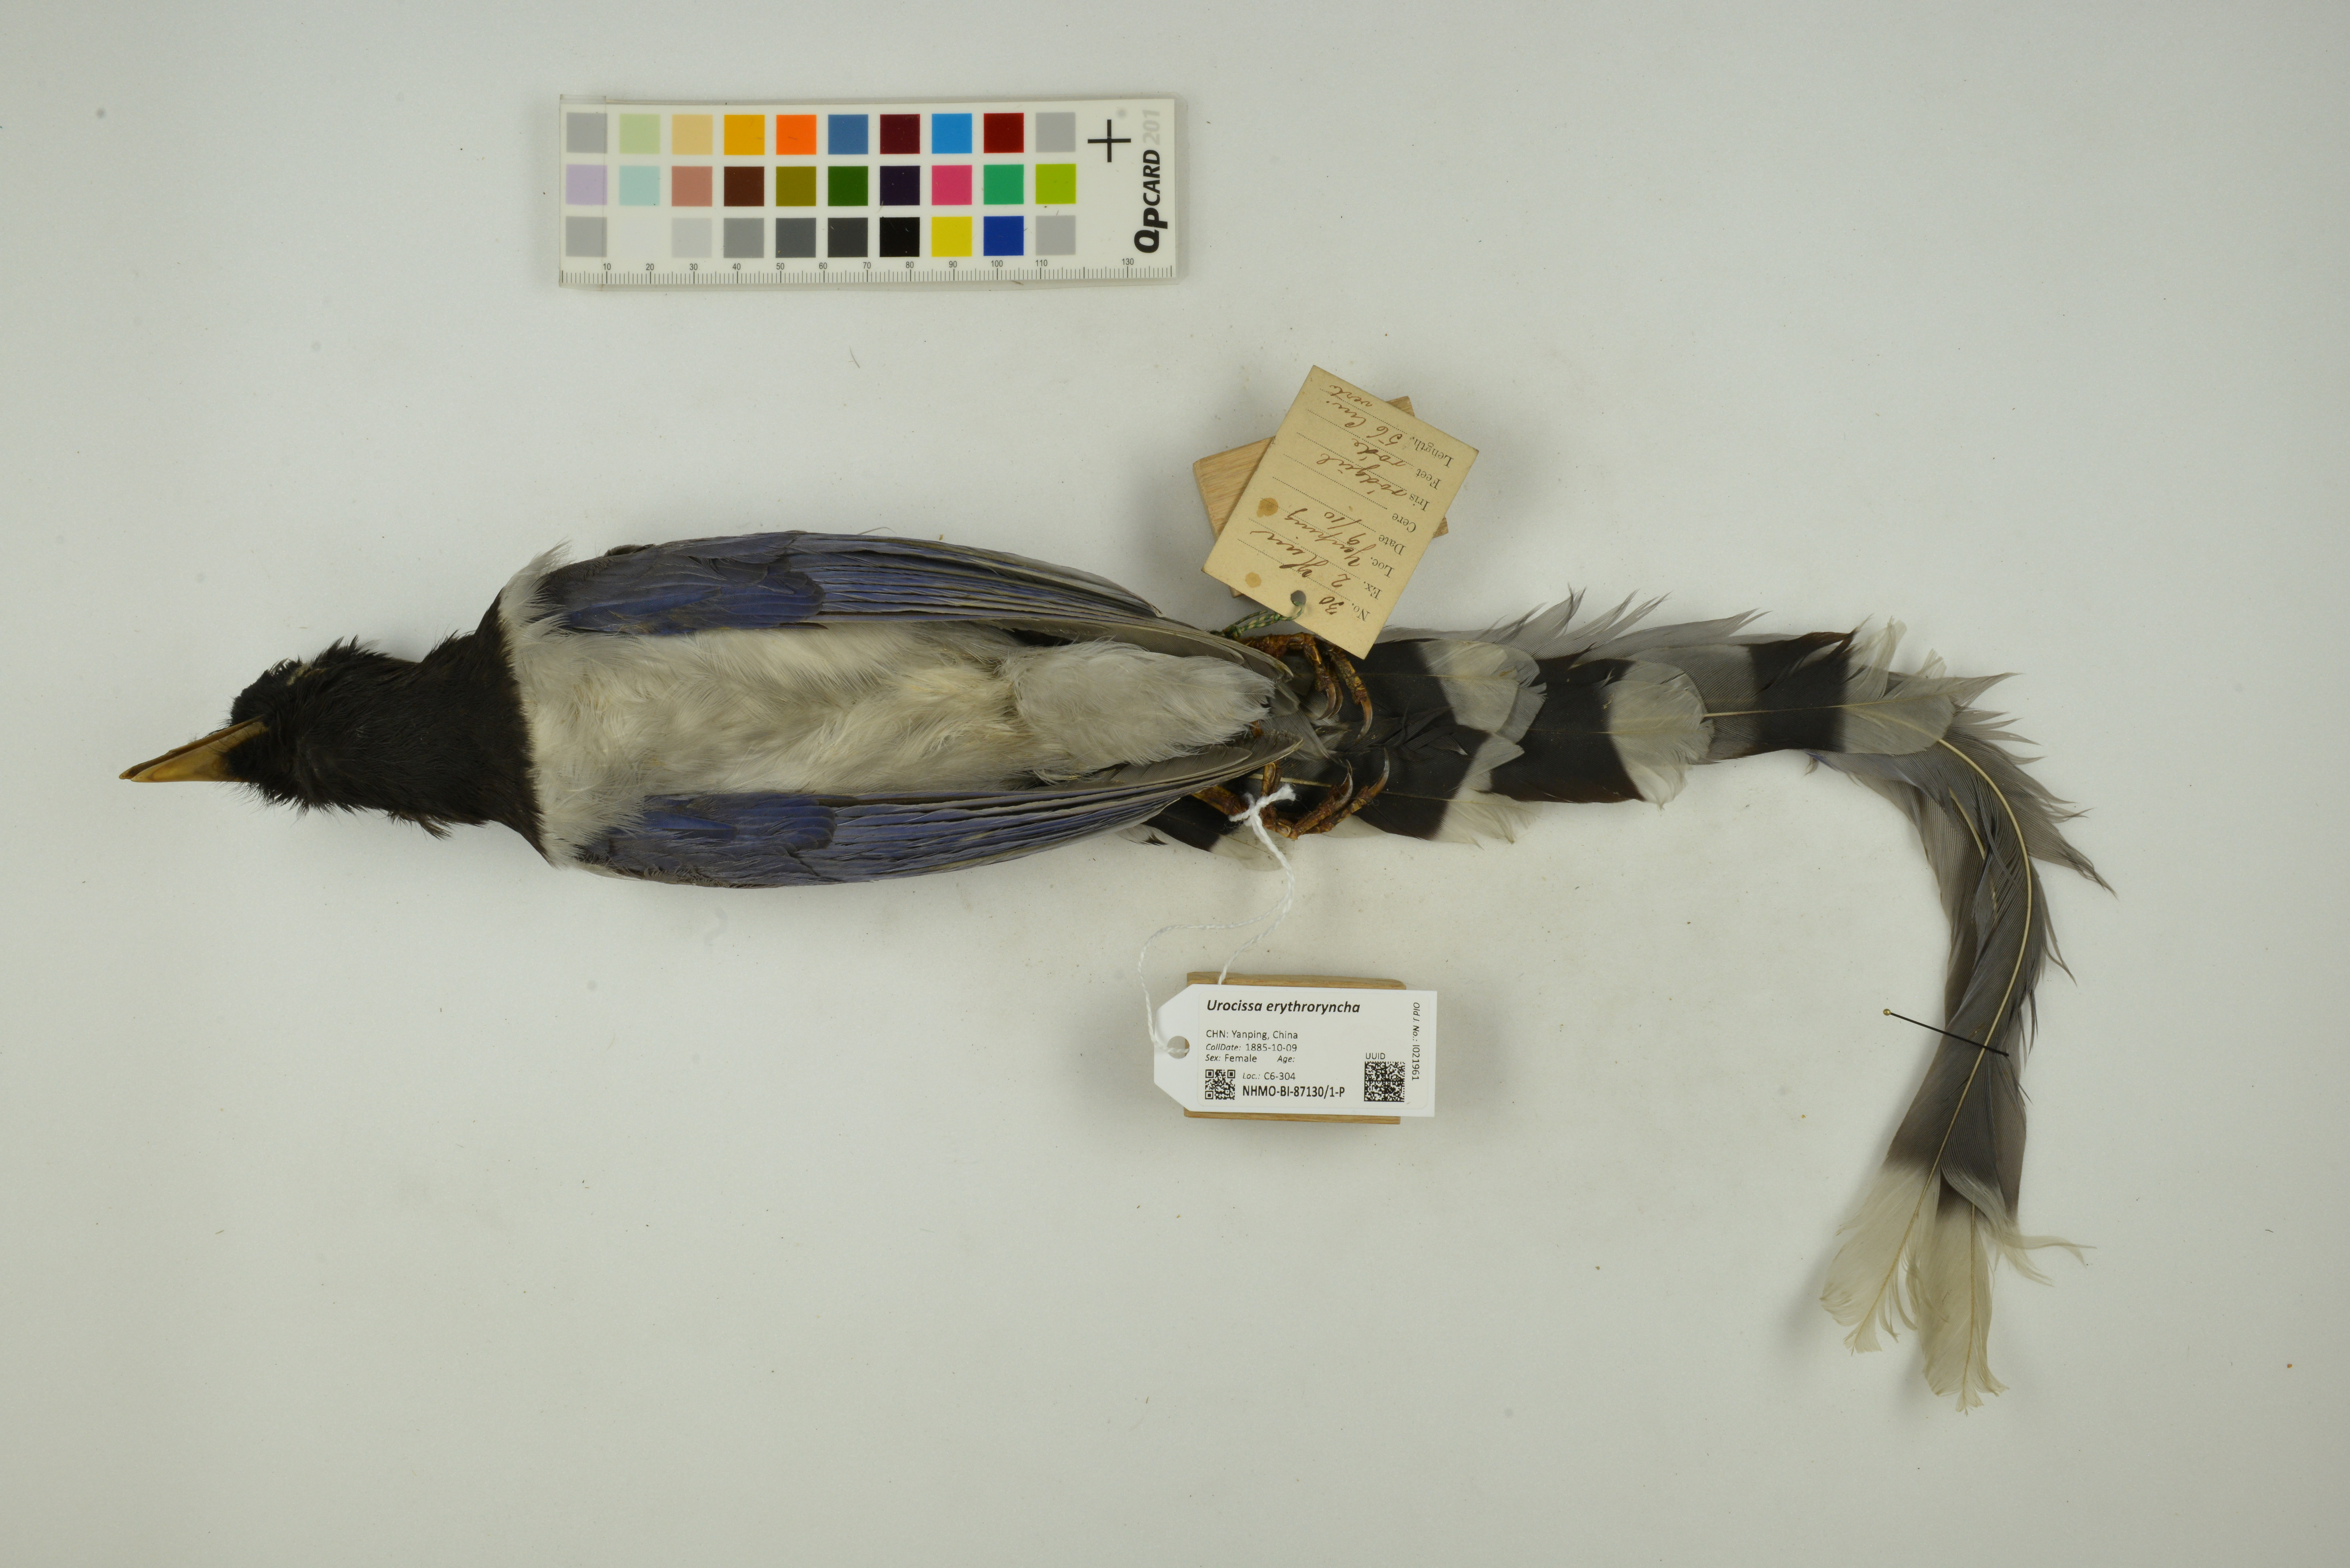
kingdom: Animalia
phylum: Chordata
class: Aves
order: Passeriformes
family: Corvidae
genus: Urocissa
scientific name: Urocissa erythroryncha
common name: Red-billed blue magpie
